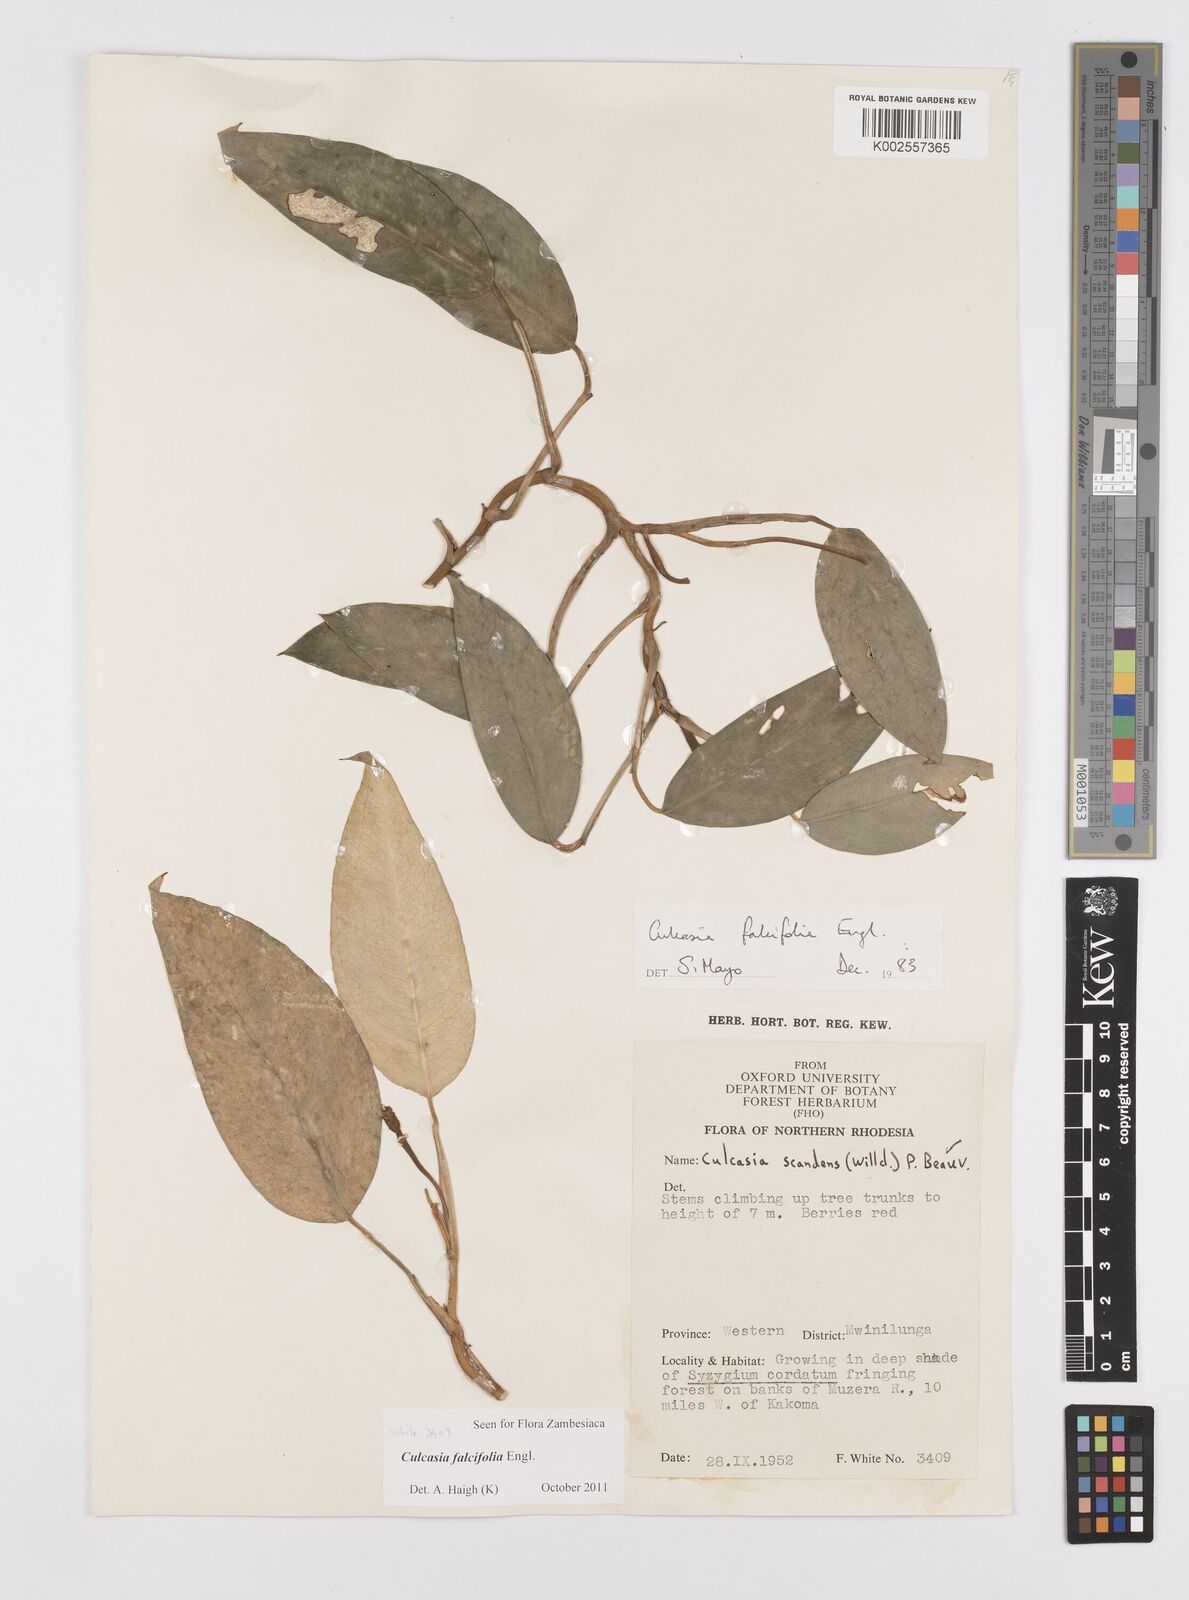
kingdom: Plantae
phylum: Tracheophyta
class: Liliopsida
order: Alismatales
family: Araceae
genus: Culcasia
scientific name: Culcasia falcifolia
